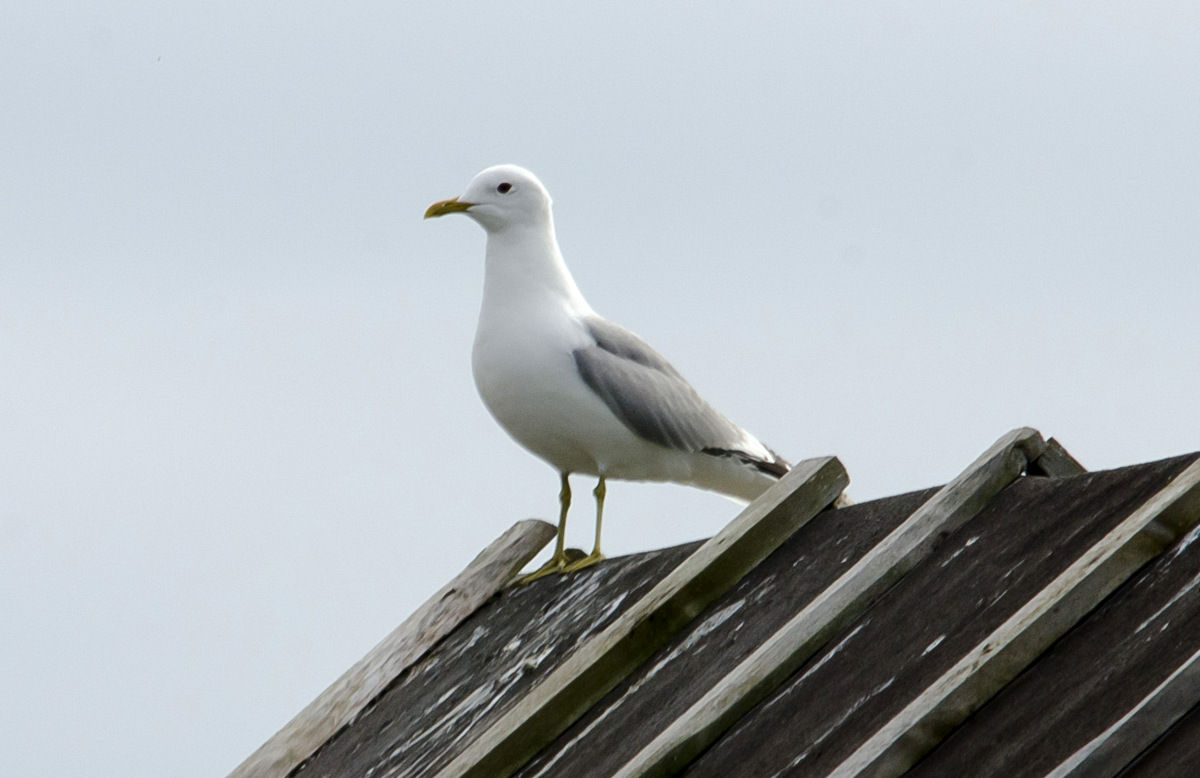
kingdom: Animalia
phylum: Chordata
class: Aves
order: Charadriiformes
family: Laridae
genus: Larus
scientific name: Larus canus
